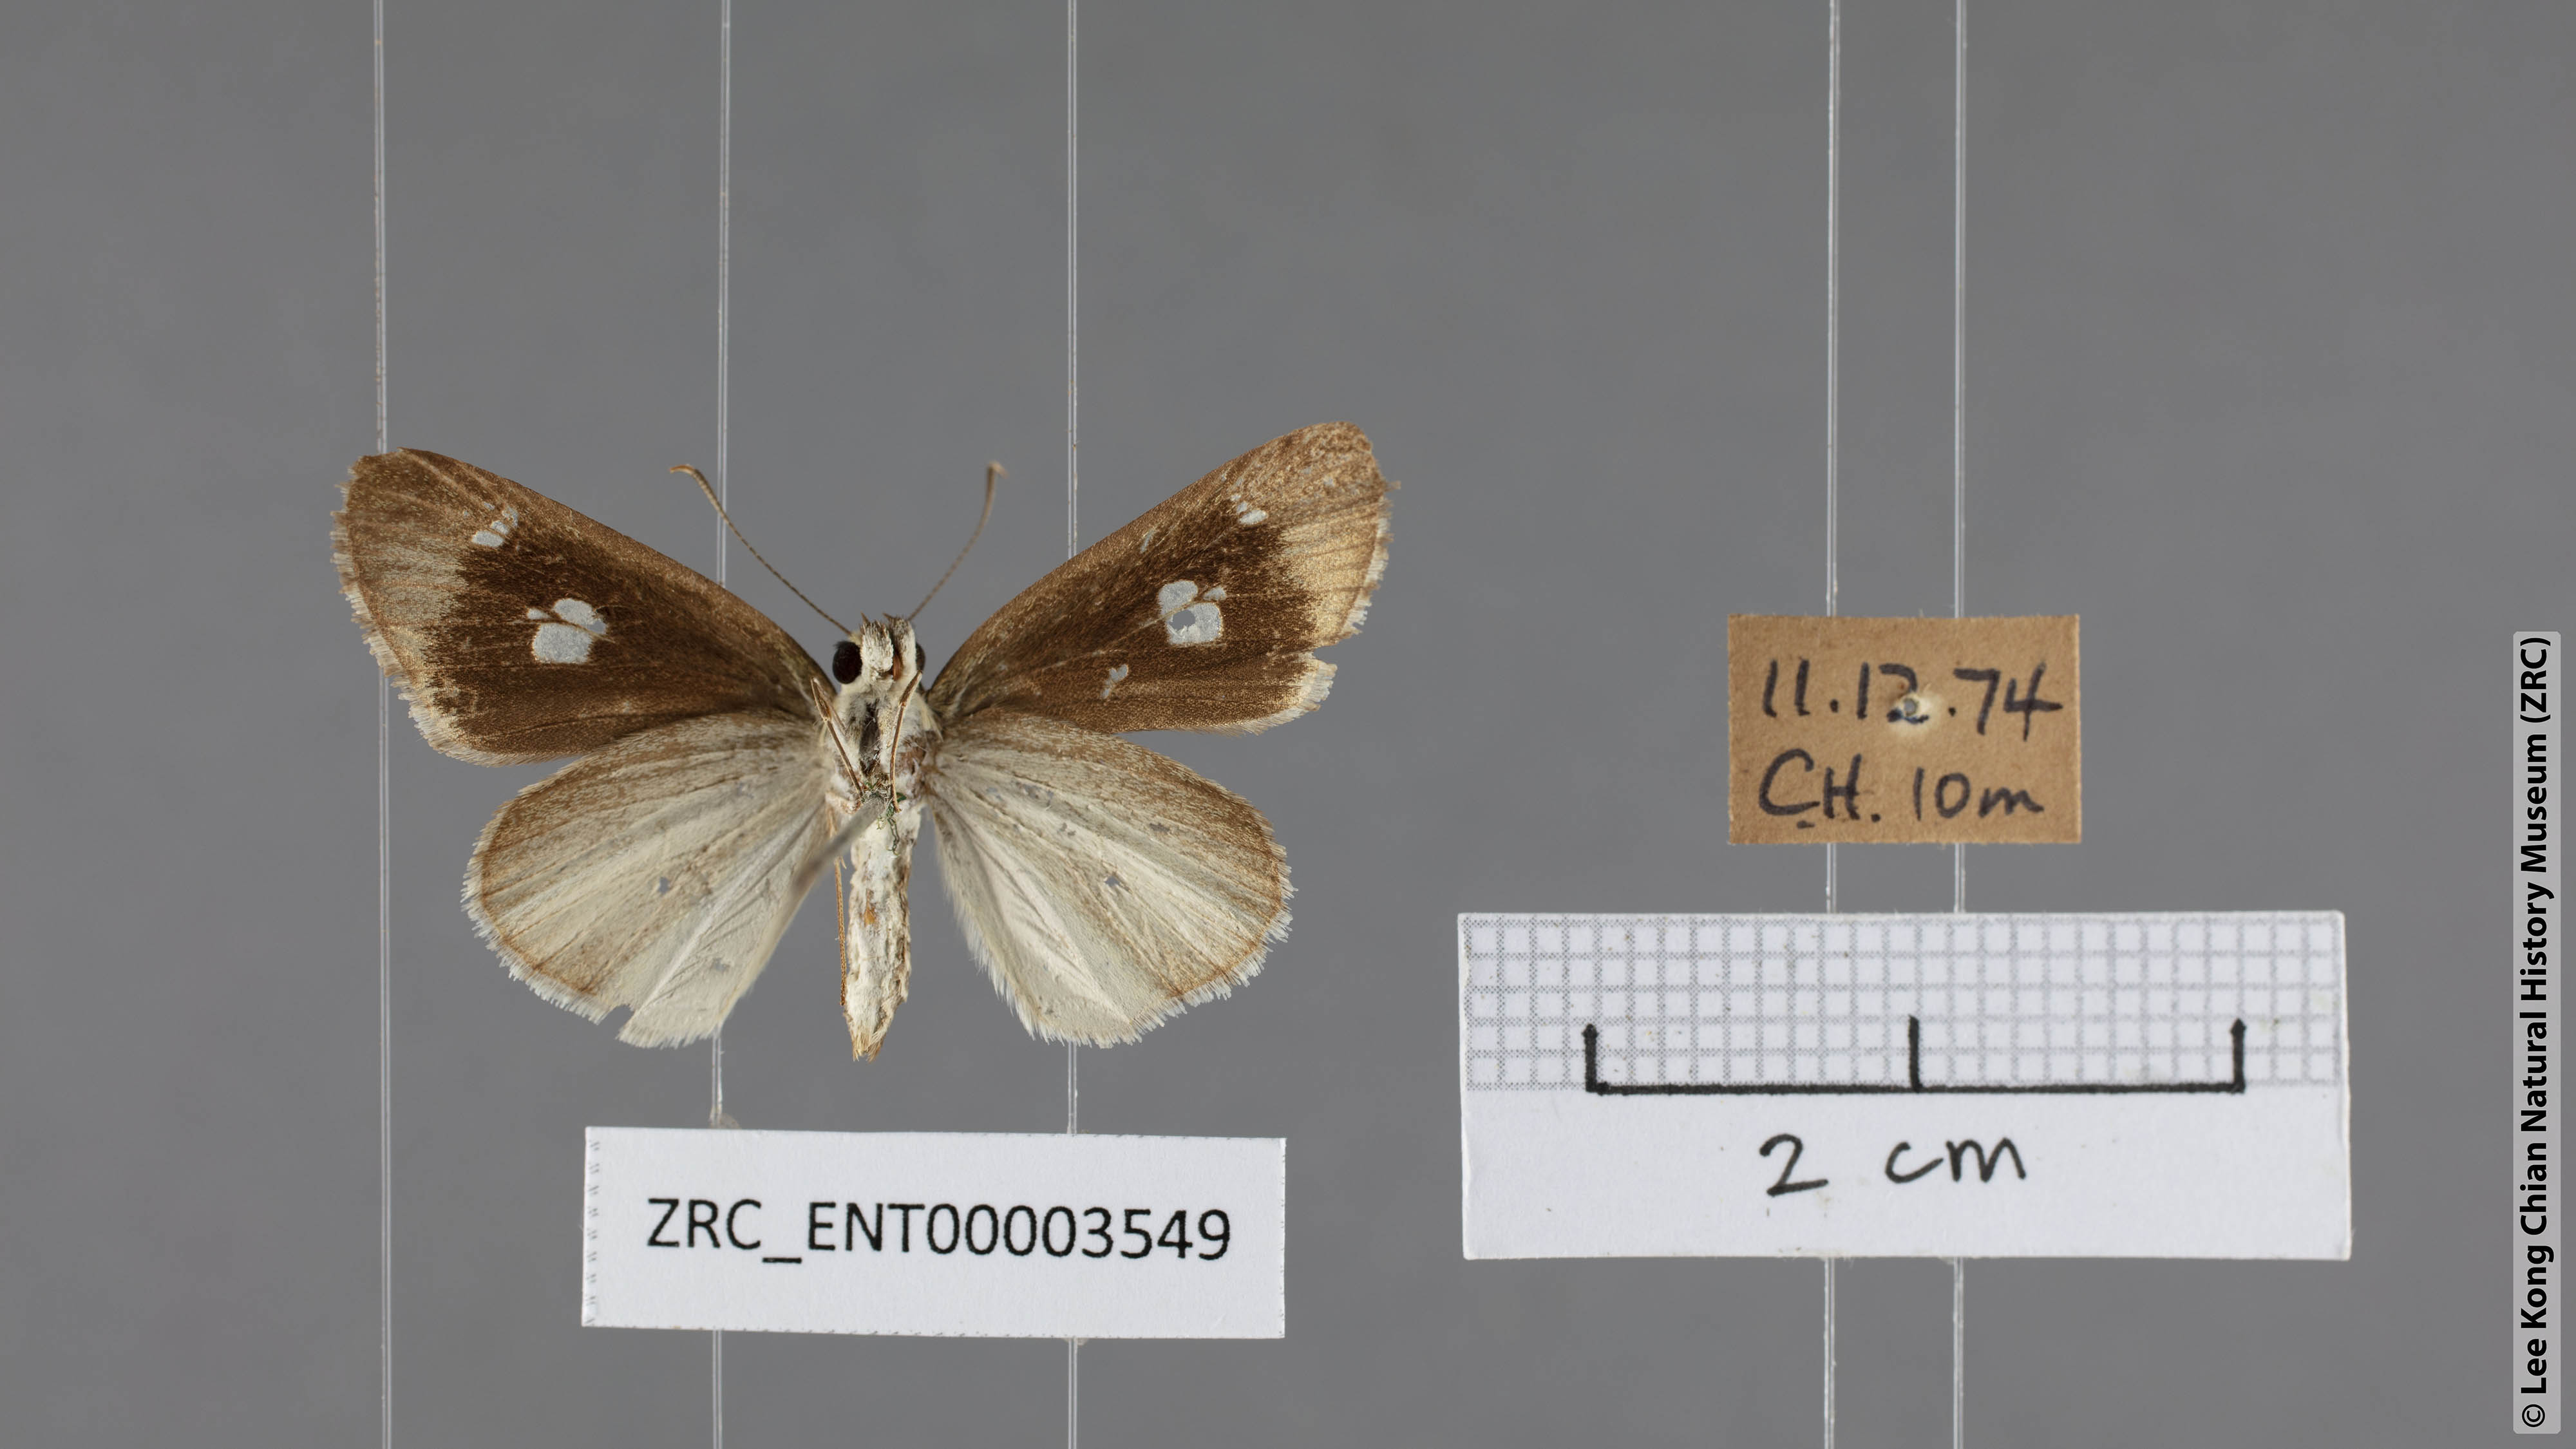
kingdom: Animalia
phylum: Arthropoda
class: Insecta
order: Lepidoptera
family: Hesperiidae
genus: Suada
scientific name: Suada swerga
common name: Grass bob
